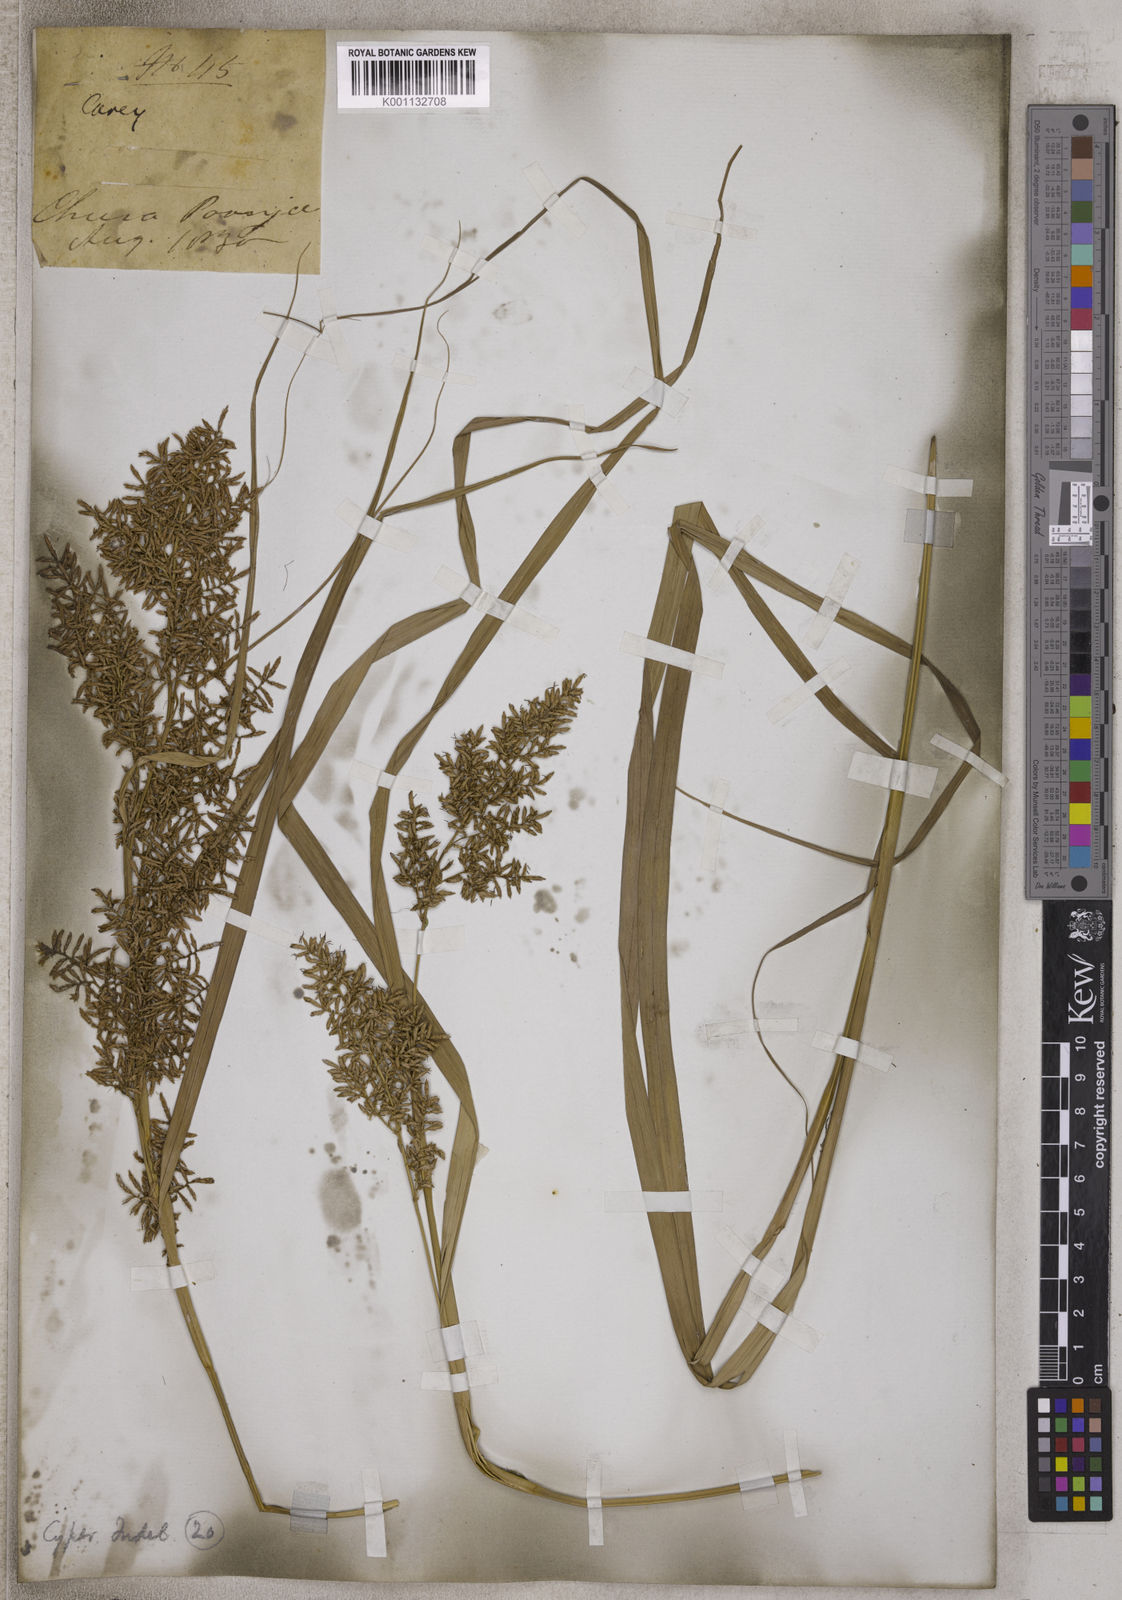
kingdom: Plantae
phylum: Tracheophyta
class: Liliopsida
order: Poales
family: Cyperaceae
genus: Carex
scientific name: Carex
